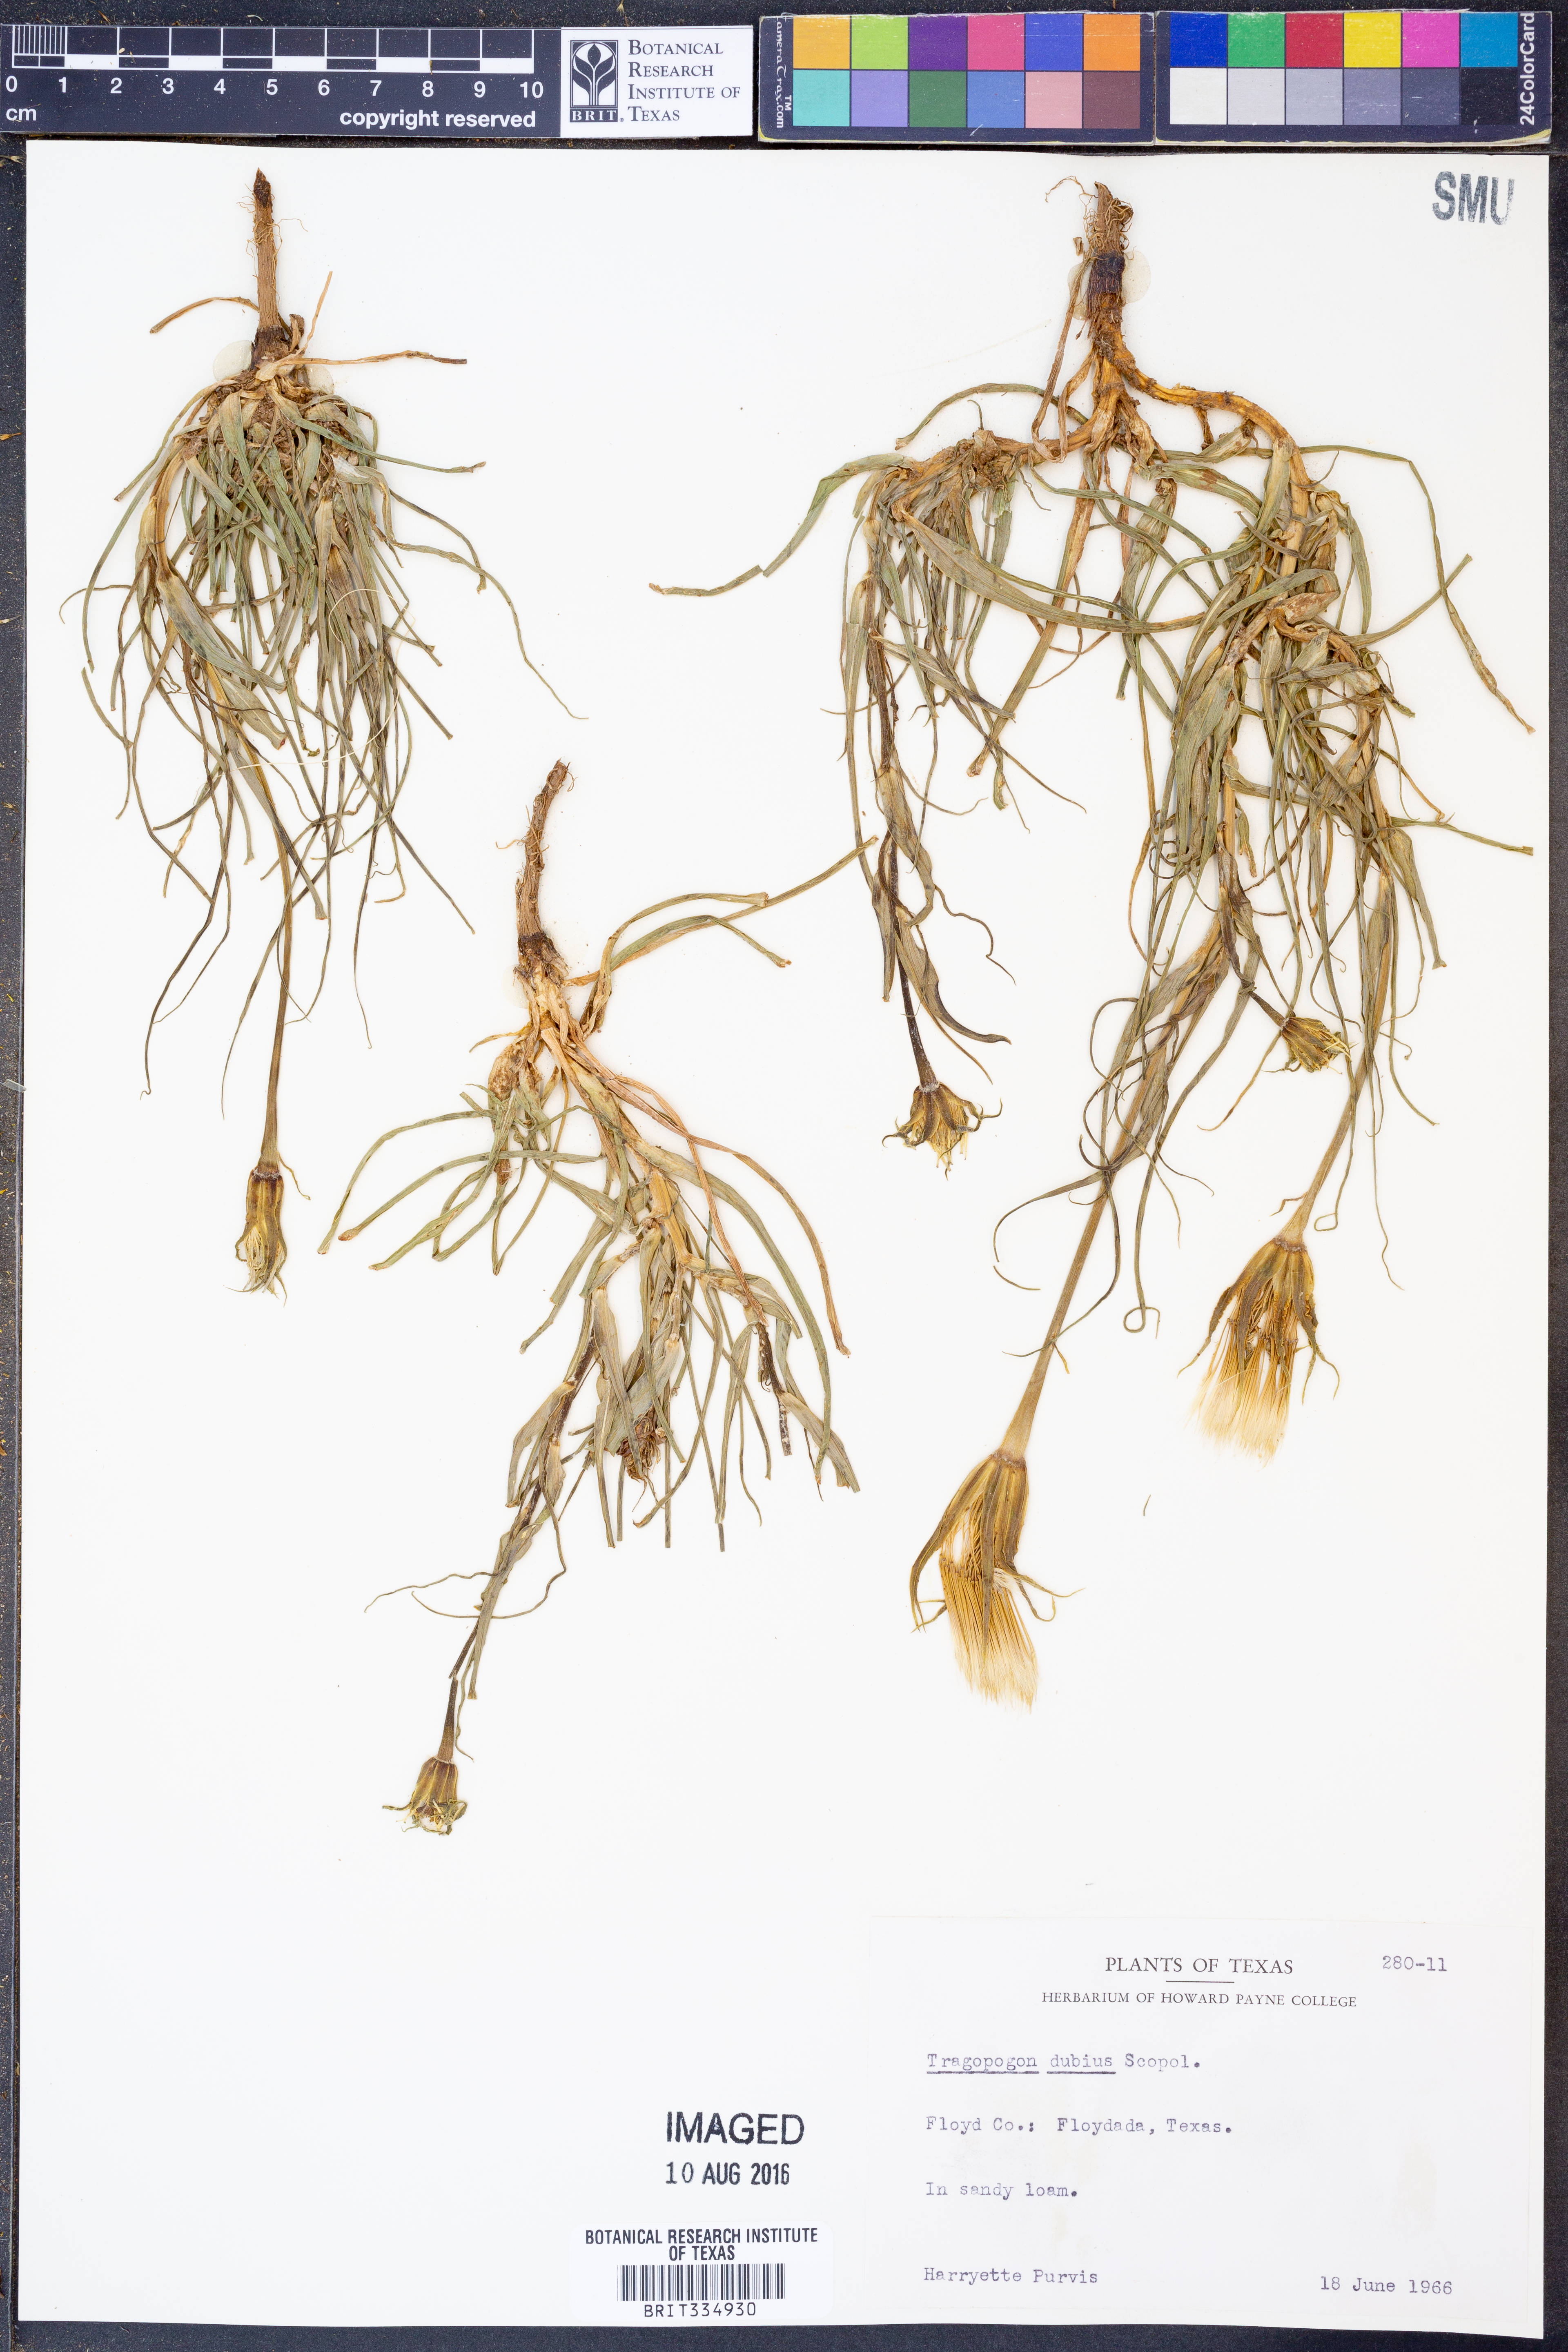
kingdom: Plantae
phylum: Tracheophyta
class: Magnoliopsida
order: Asterales
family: Asteraceae
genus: Tragopogon
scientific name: Tragopogon dubius
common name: Yellow salsify
